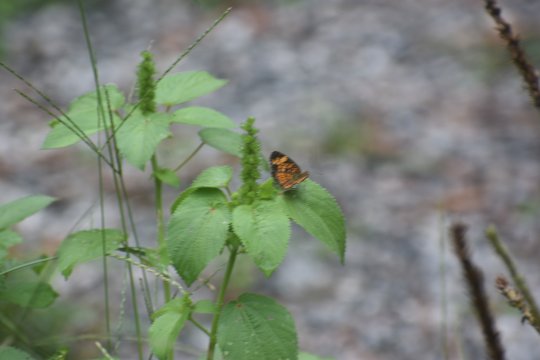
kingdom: Animalia
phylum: Arthropoda
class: Insecta
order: Lepidoptera
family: Nymphalidae
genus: Phyciodes
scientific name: Phyciodes tharos
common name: Pearl Crescent
